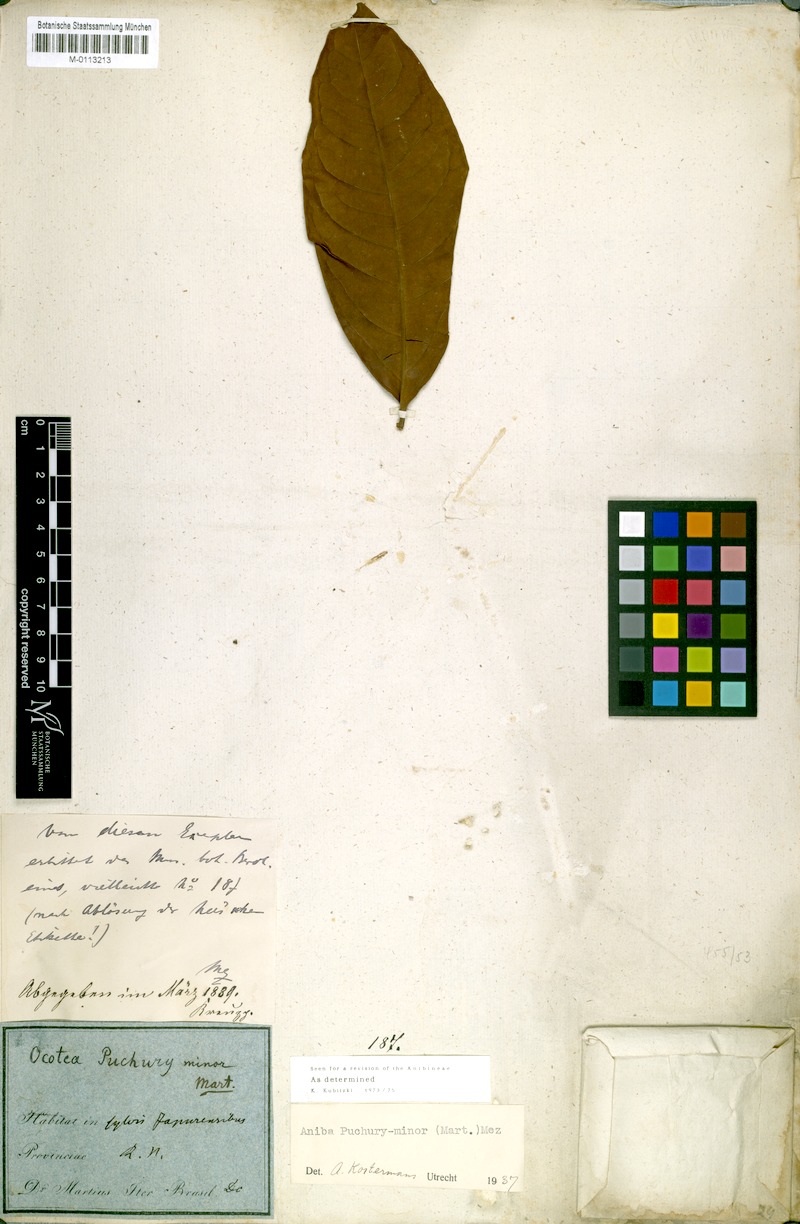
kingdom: Plantae
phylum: Tracheophyta
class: Magnoliopsida
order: Laurales
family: Lauraceae
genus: Aniba
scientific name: Aniba puchury-minor
